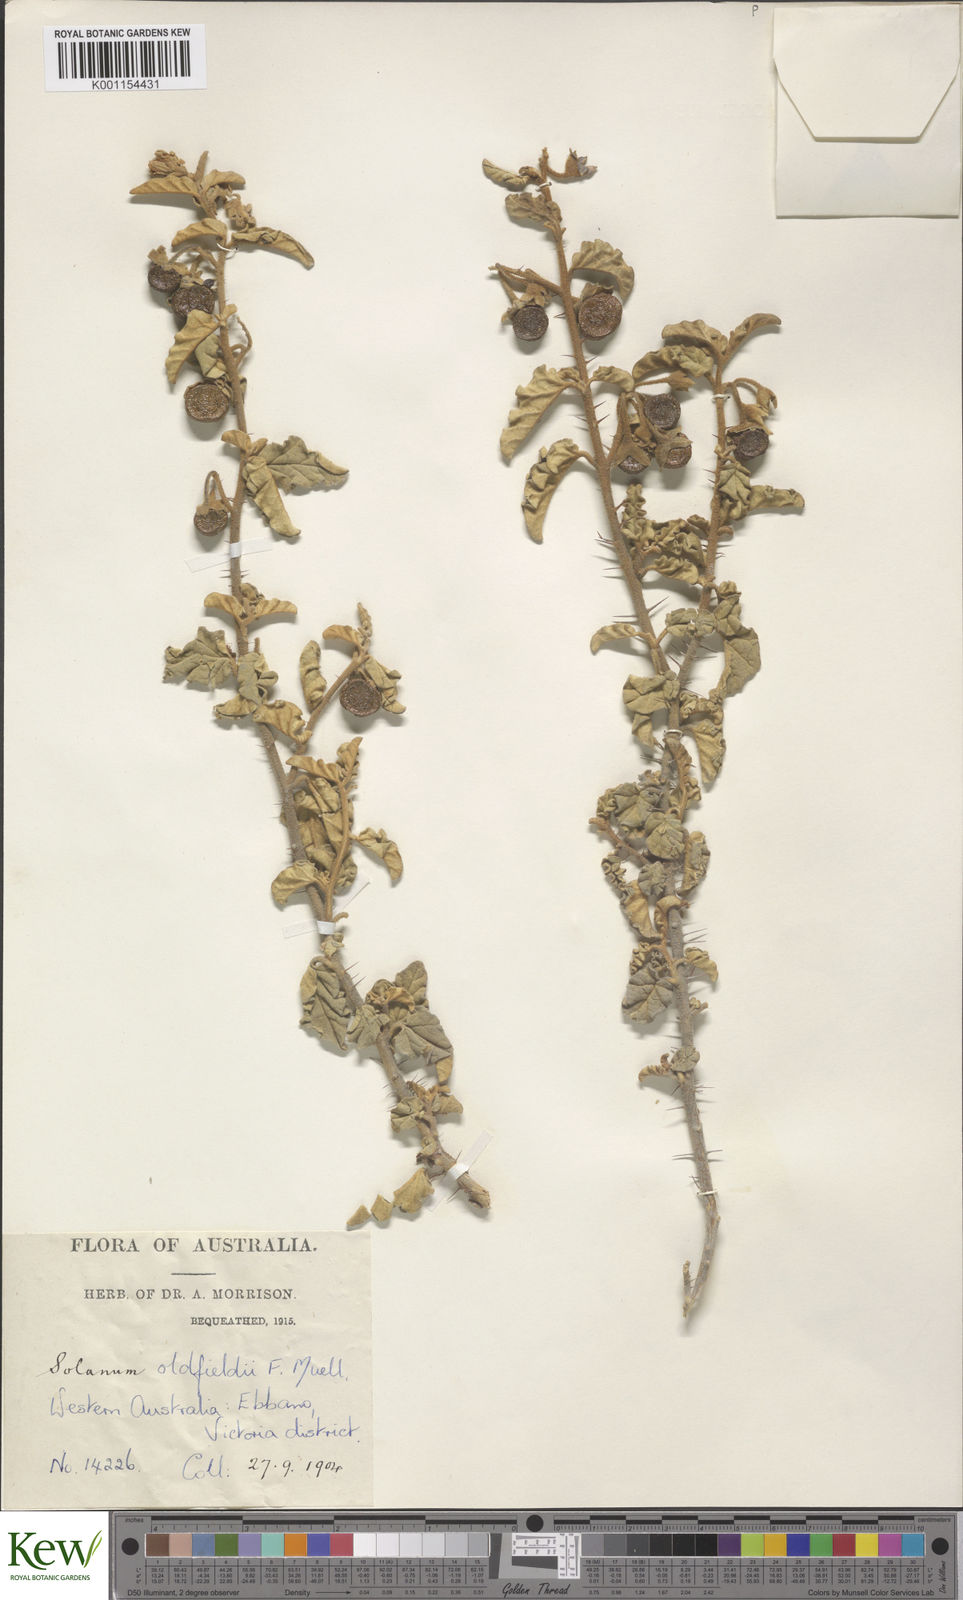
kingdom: Plantae
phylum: Tracheophyta
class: Magnoliopsida
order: Solanales
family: Solanaceae
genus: Solanum
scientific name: Solanum oldfieldii
